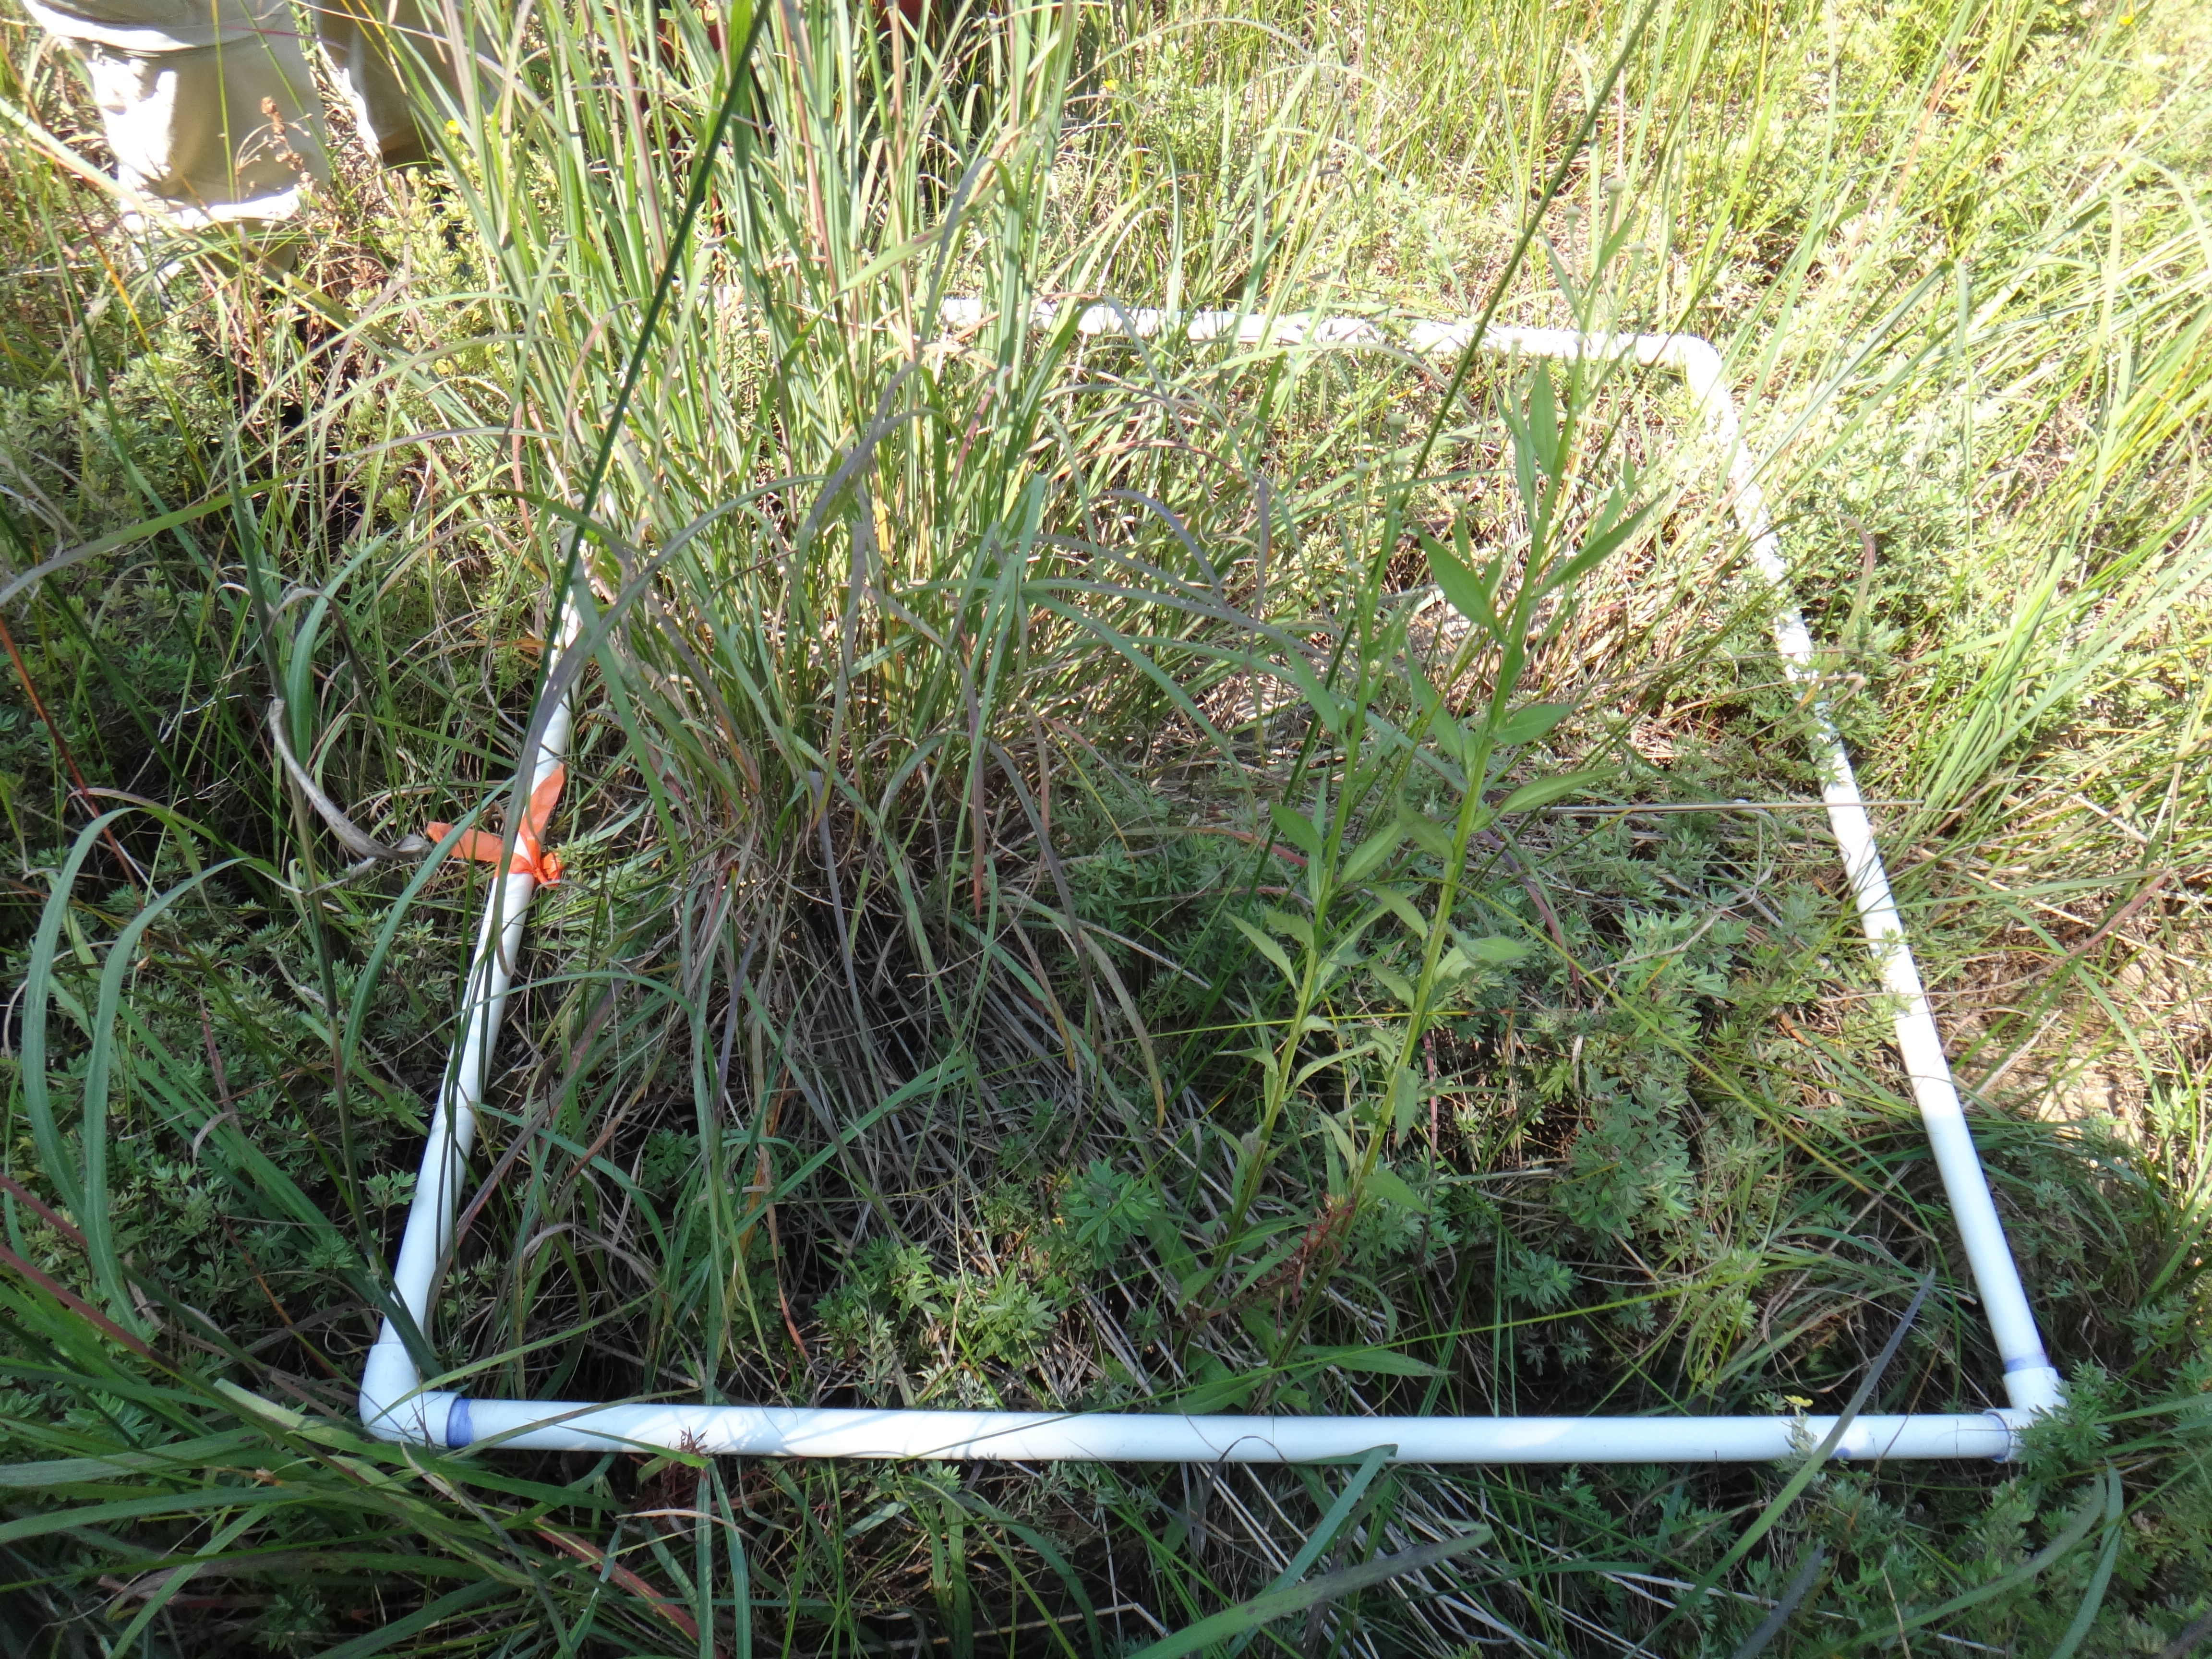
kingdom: Plantae
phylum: Tracheophyta
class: Magnoliopsida
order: Gentianales
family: Apocynaceae
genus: Apocynum
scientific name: Apocynum cannabinum
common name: Hemp dogbane
